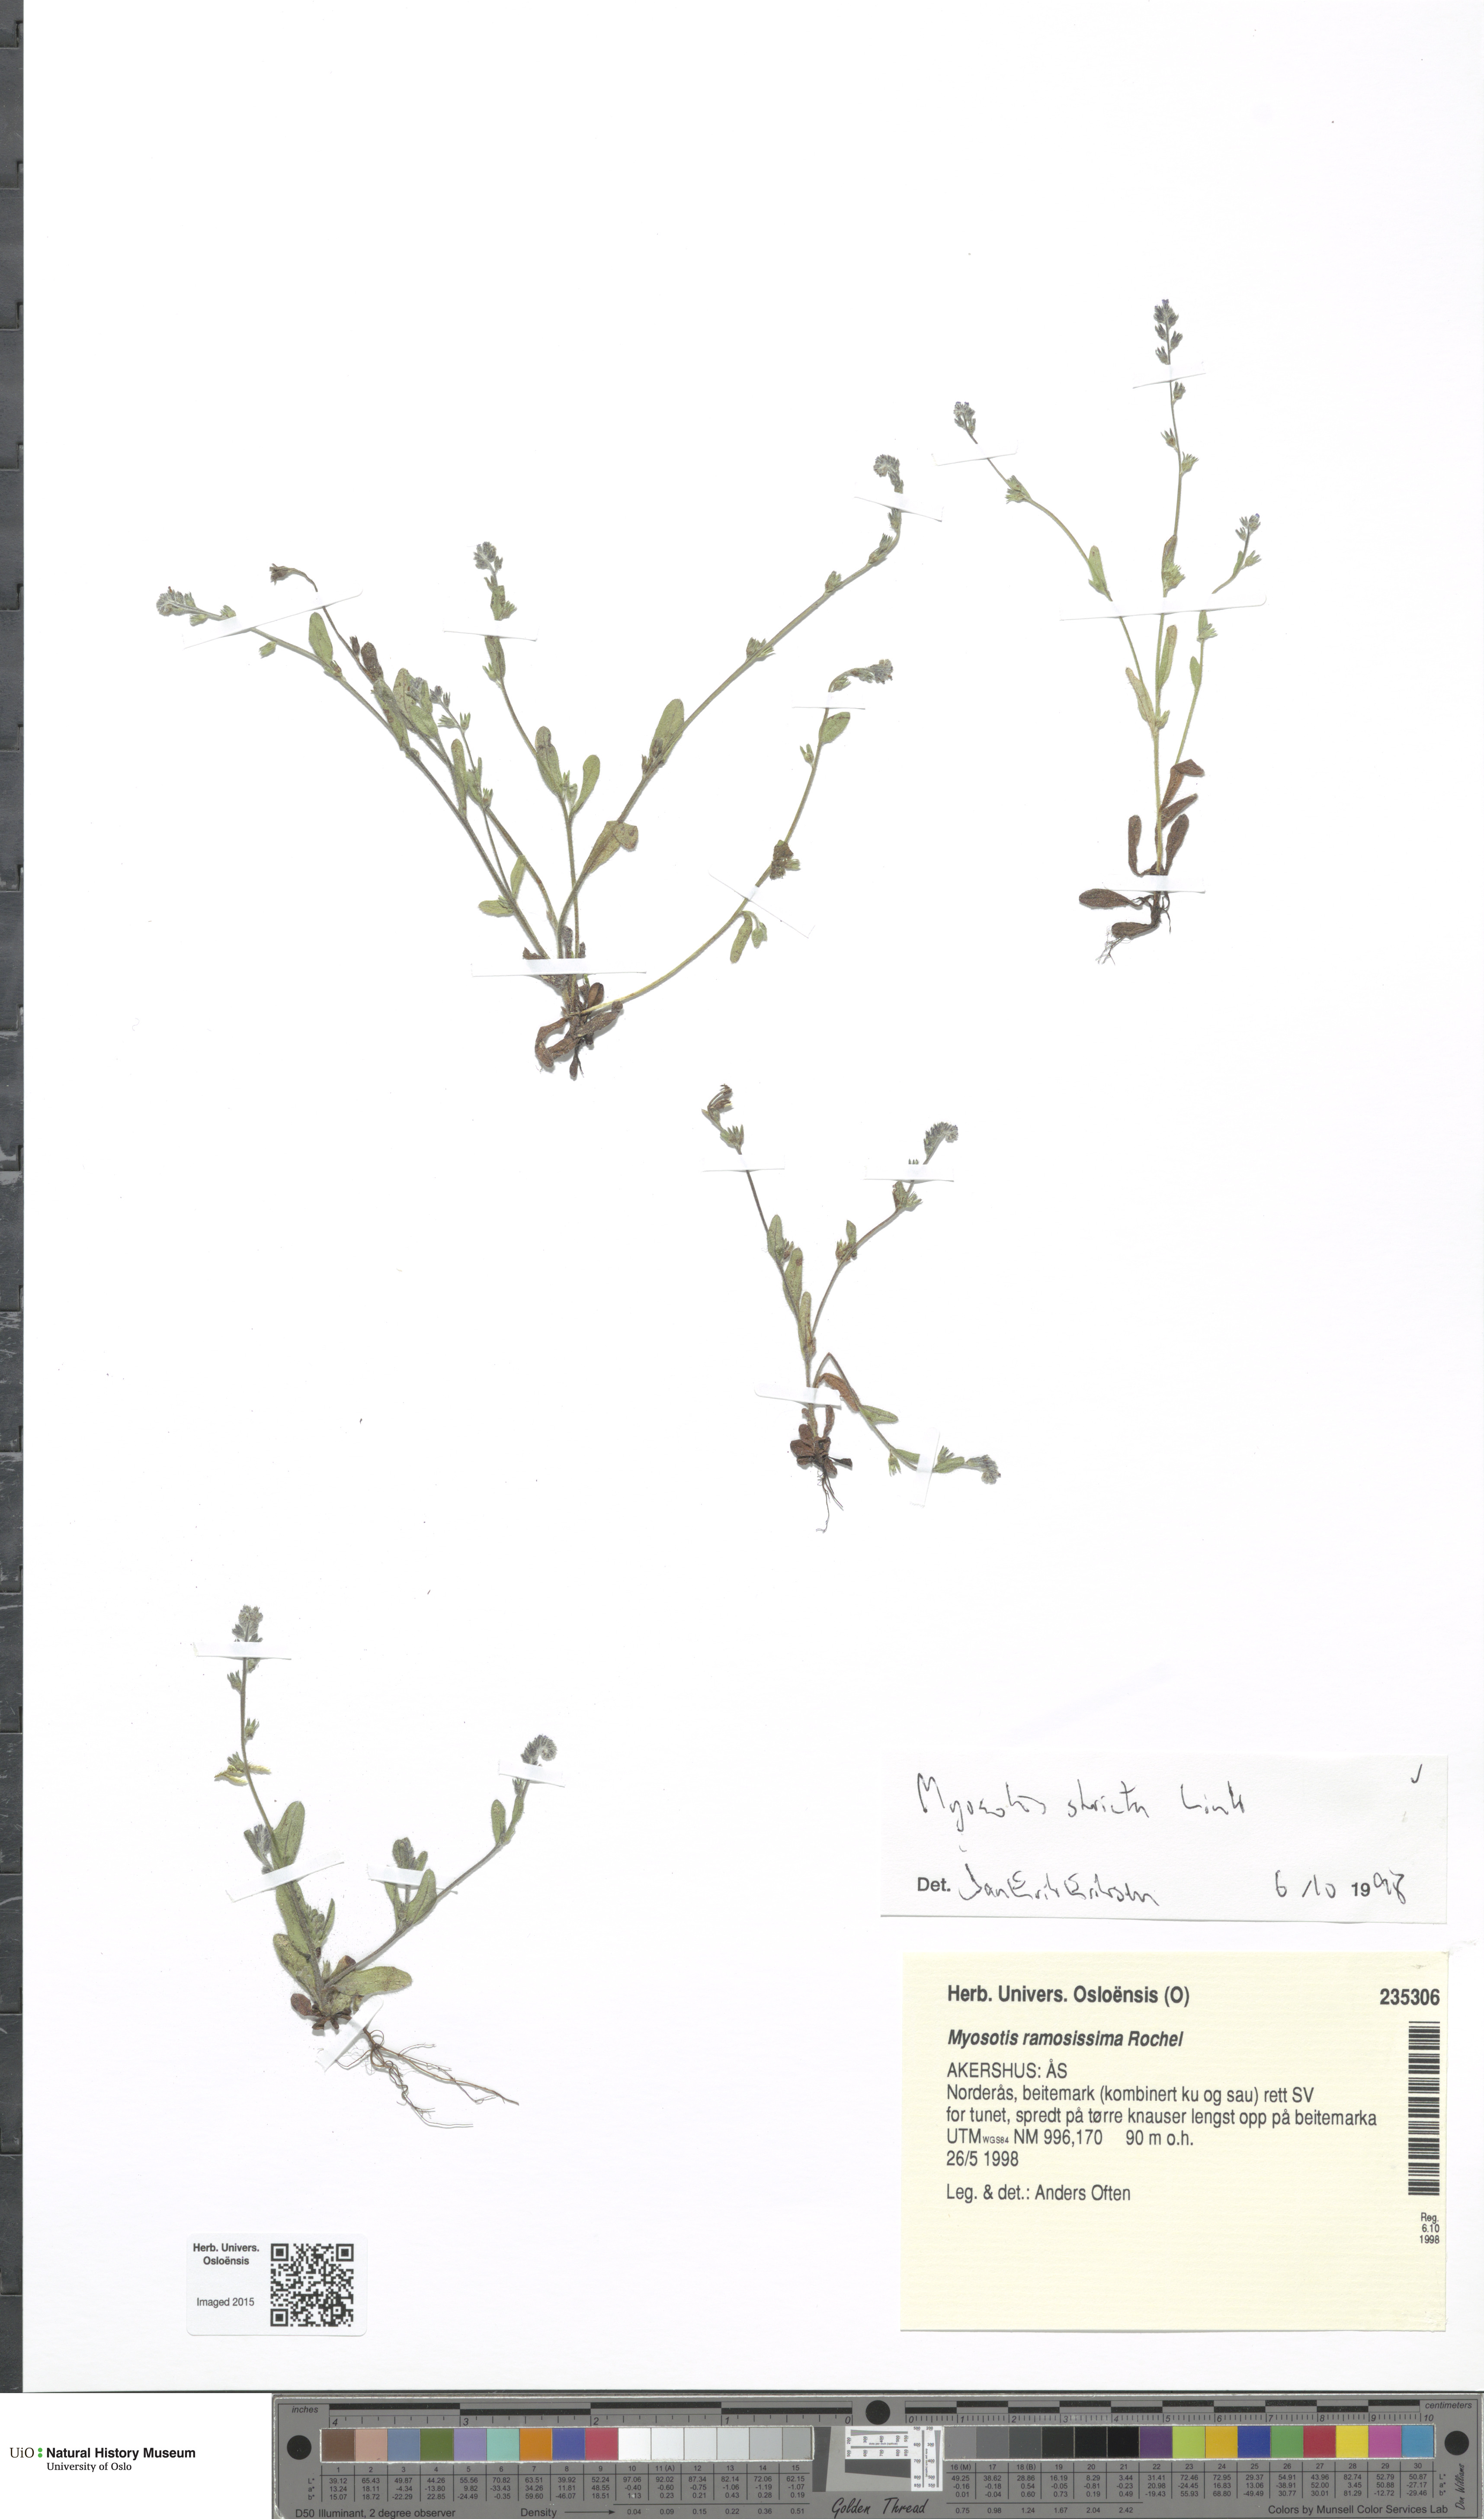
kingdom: Plantae
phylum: Tracheophyta
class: Magnoliopsida
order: Boraginales
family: Boraginaceae
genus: Myosotis
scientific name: Myosotis stricta
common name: Strict forget-me-not
